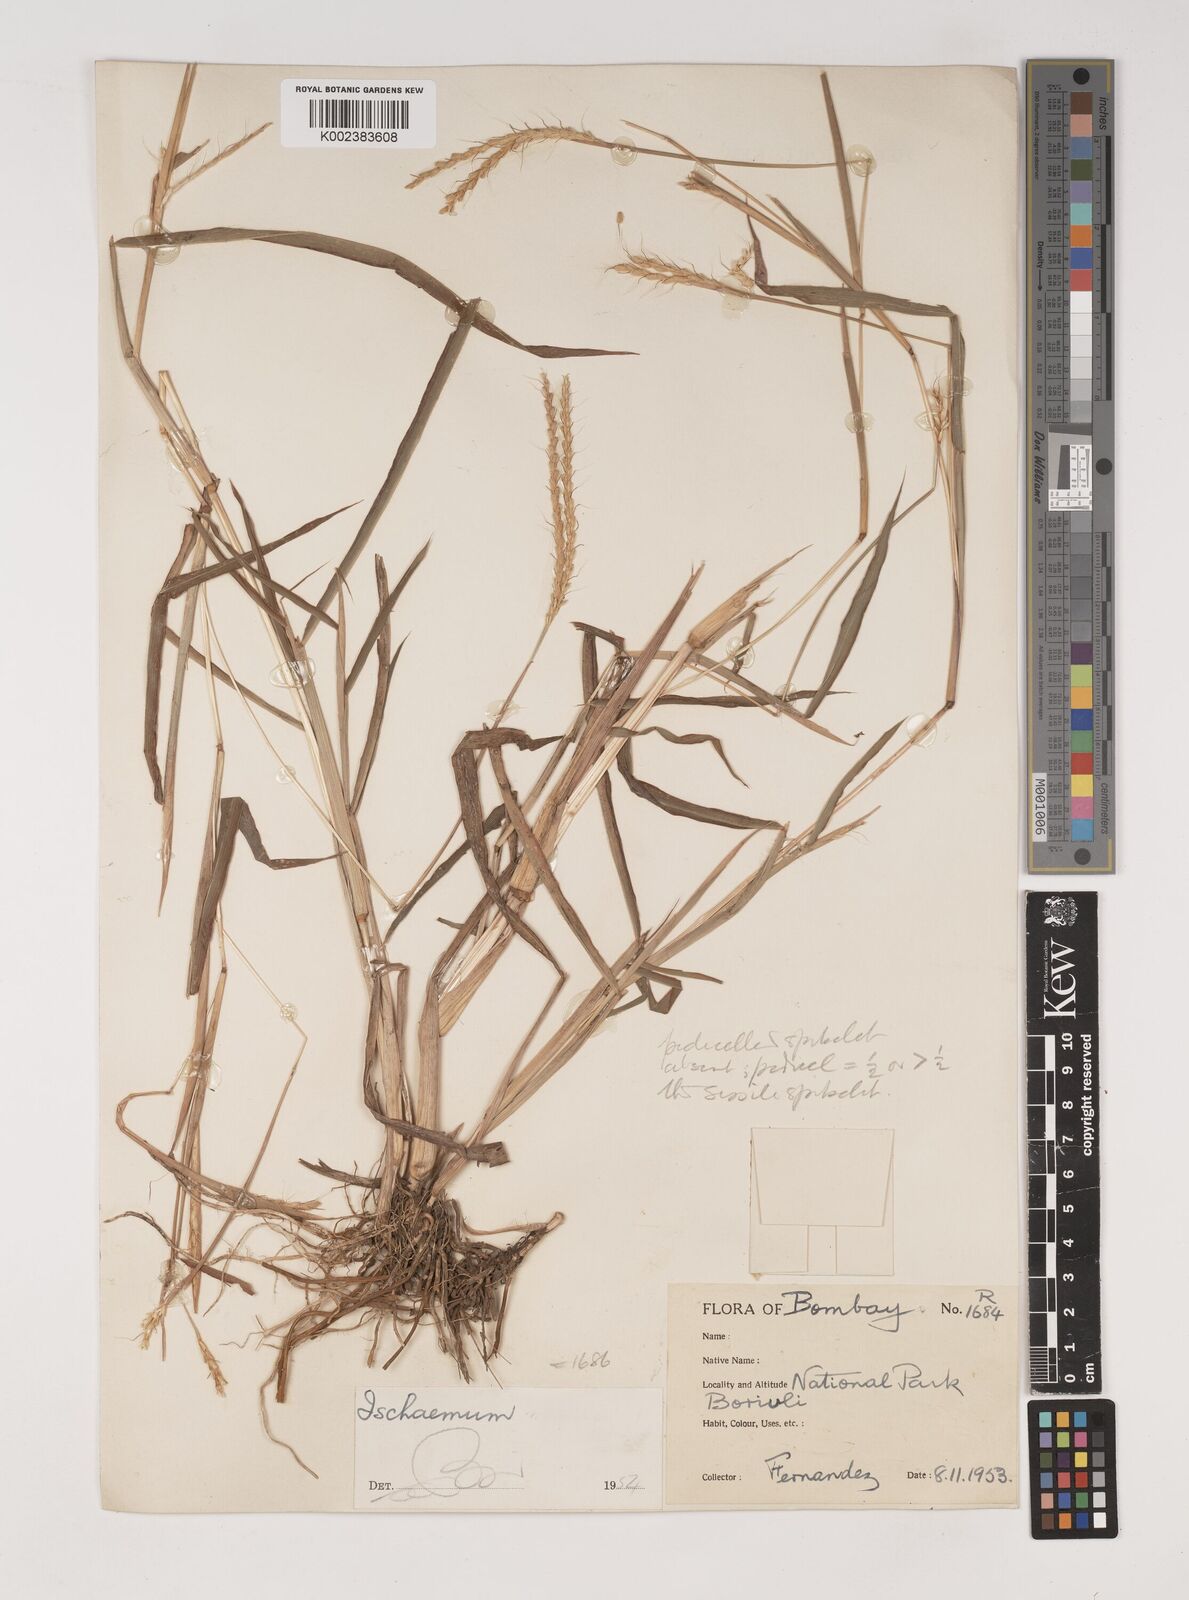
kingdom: Plantae
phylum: Tracheophyta
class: Liliopsida
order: Poales
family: Poaceae
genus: Ischaemum
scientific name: Ischaemum santapaui
